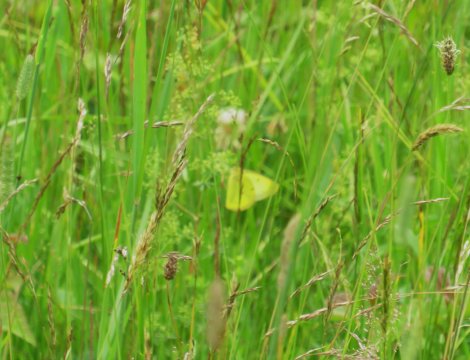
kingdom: Animalia
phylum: Arthropoda
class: Insecta
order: Lepidoptera
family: Pieridae
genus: Colias
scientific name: Colias philodice
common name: Clouded Sulphur
